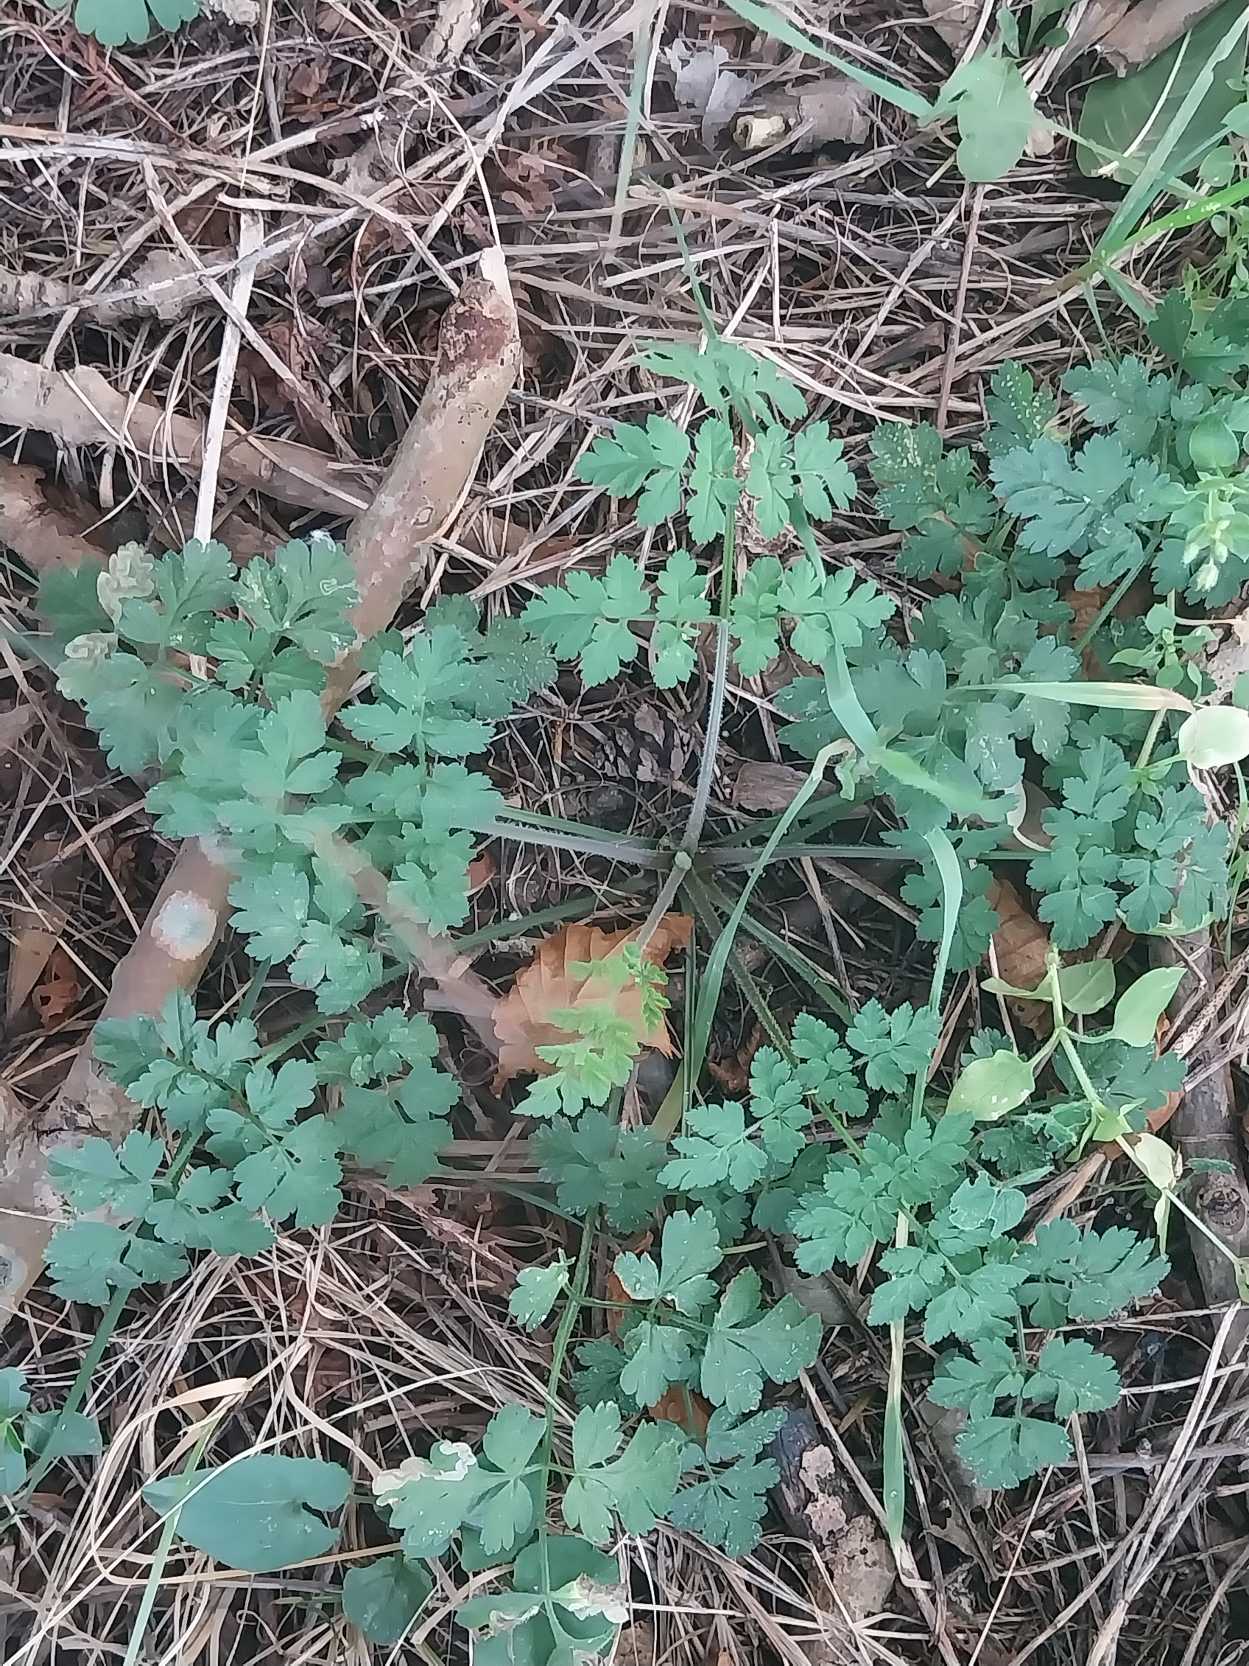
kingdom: Plantae
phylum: Tracheophyta
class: Magnoliopsida
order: Apiales
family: Apiaceae
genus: Chaerophyllum
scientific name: Chaerophyllum temulum
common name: Almindelig hulsvøb
